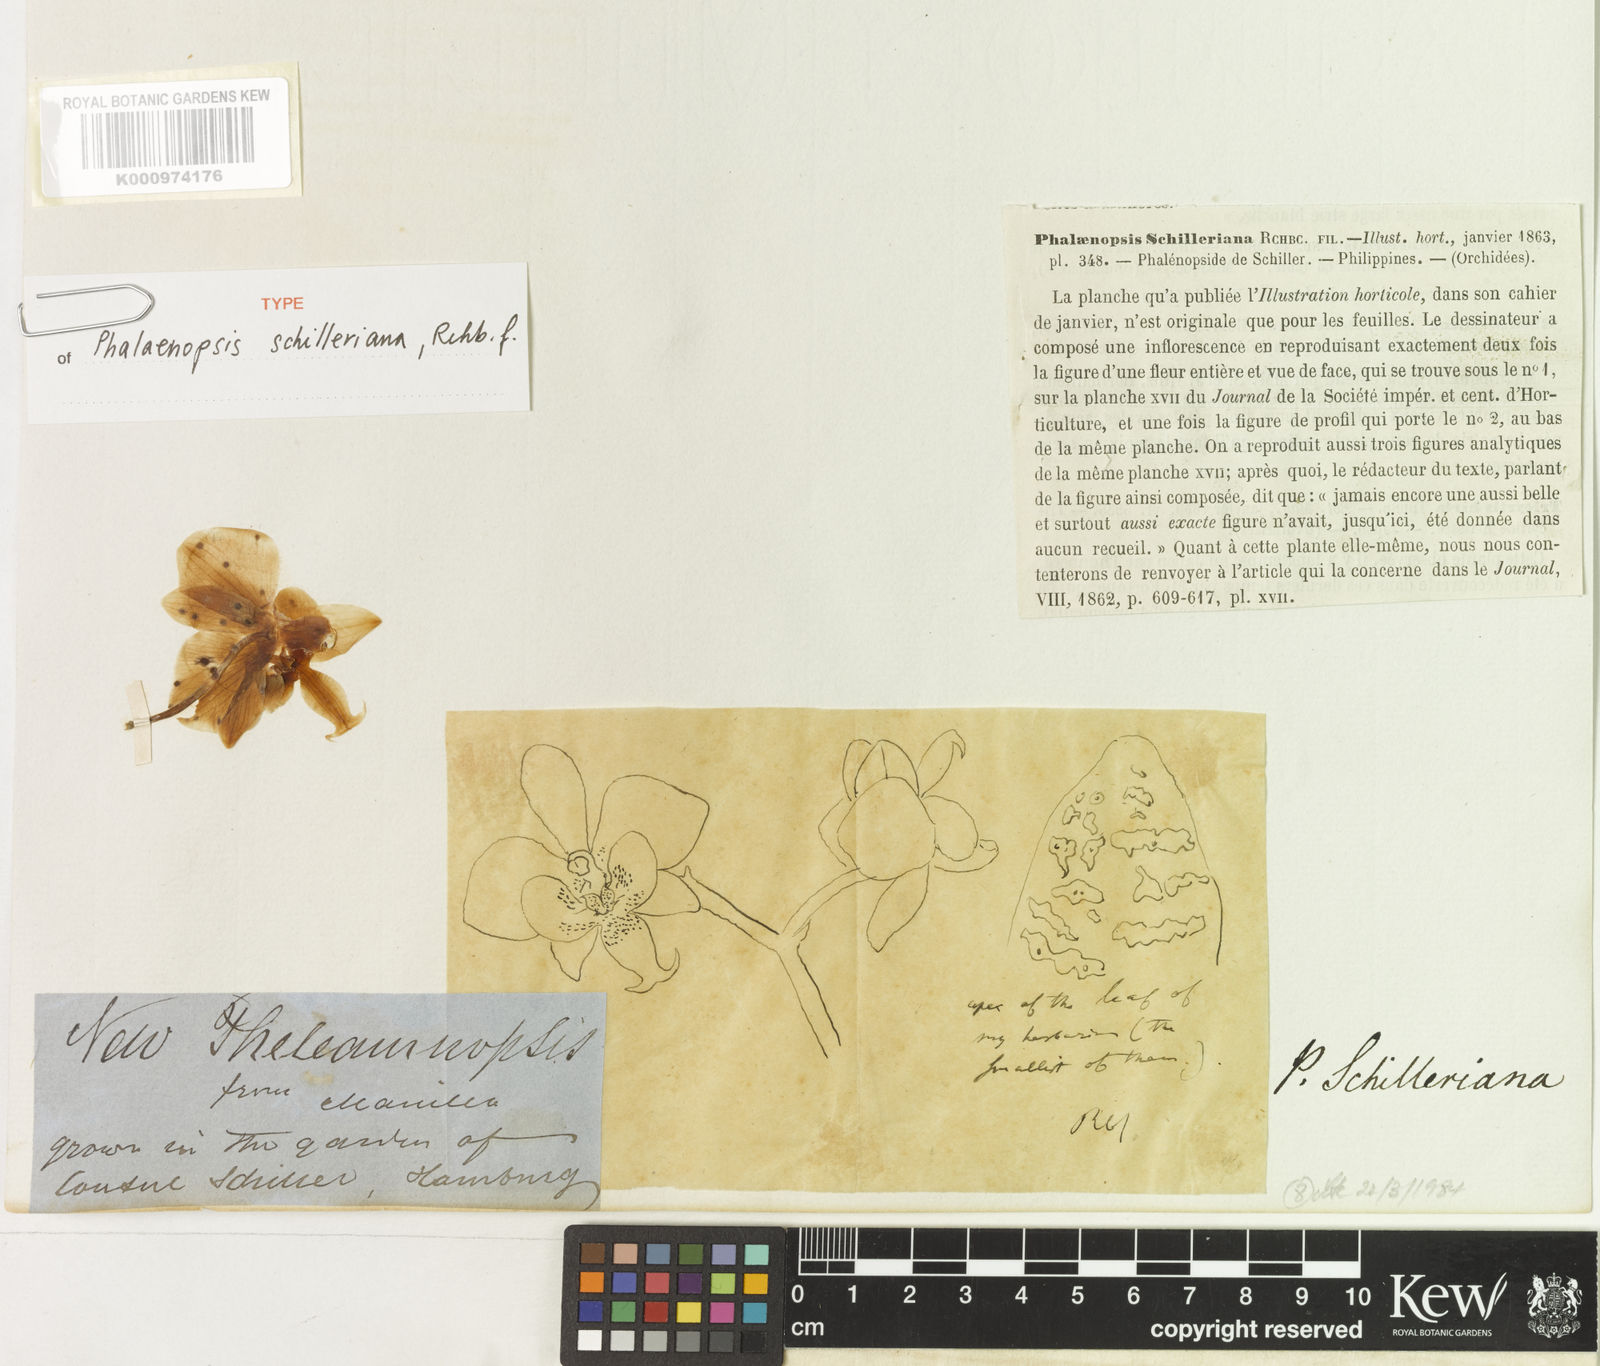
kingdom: Plantae
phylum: Tracheophyta
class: Liliopsida
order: Asparagales
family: Orchidaceae
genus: Phalaenopsis
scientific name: Phalaenopsis schilleriana
